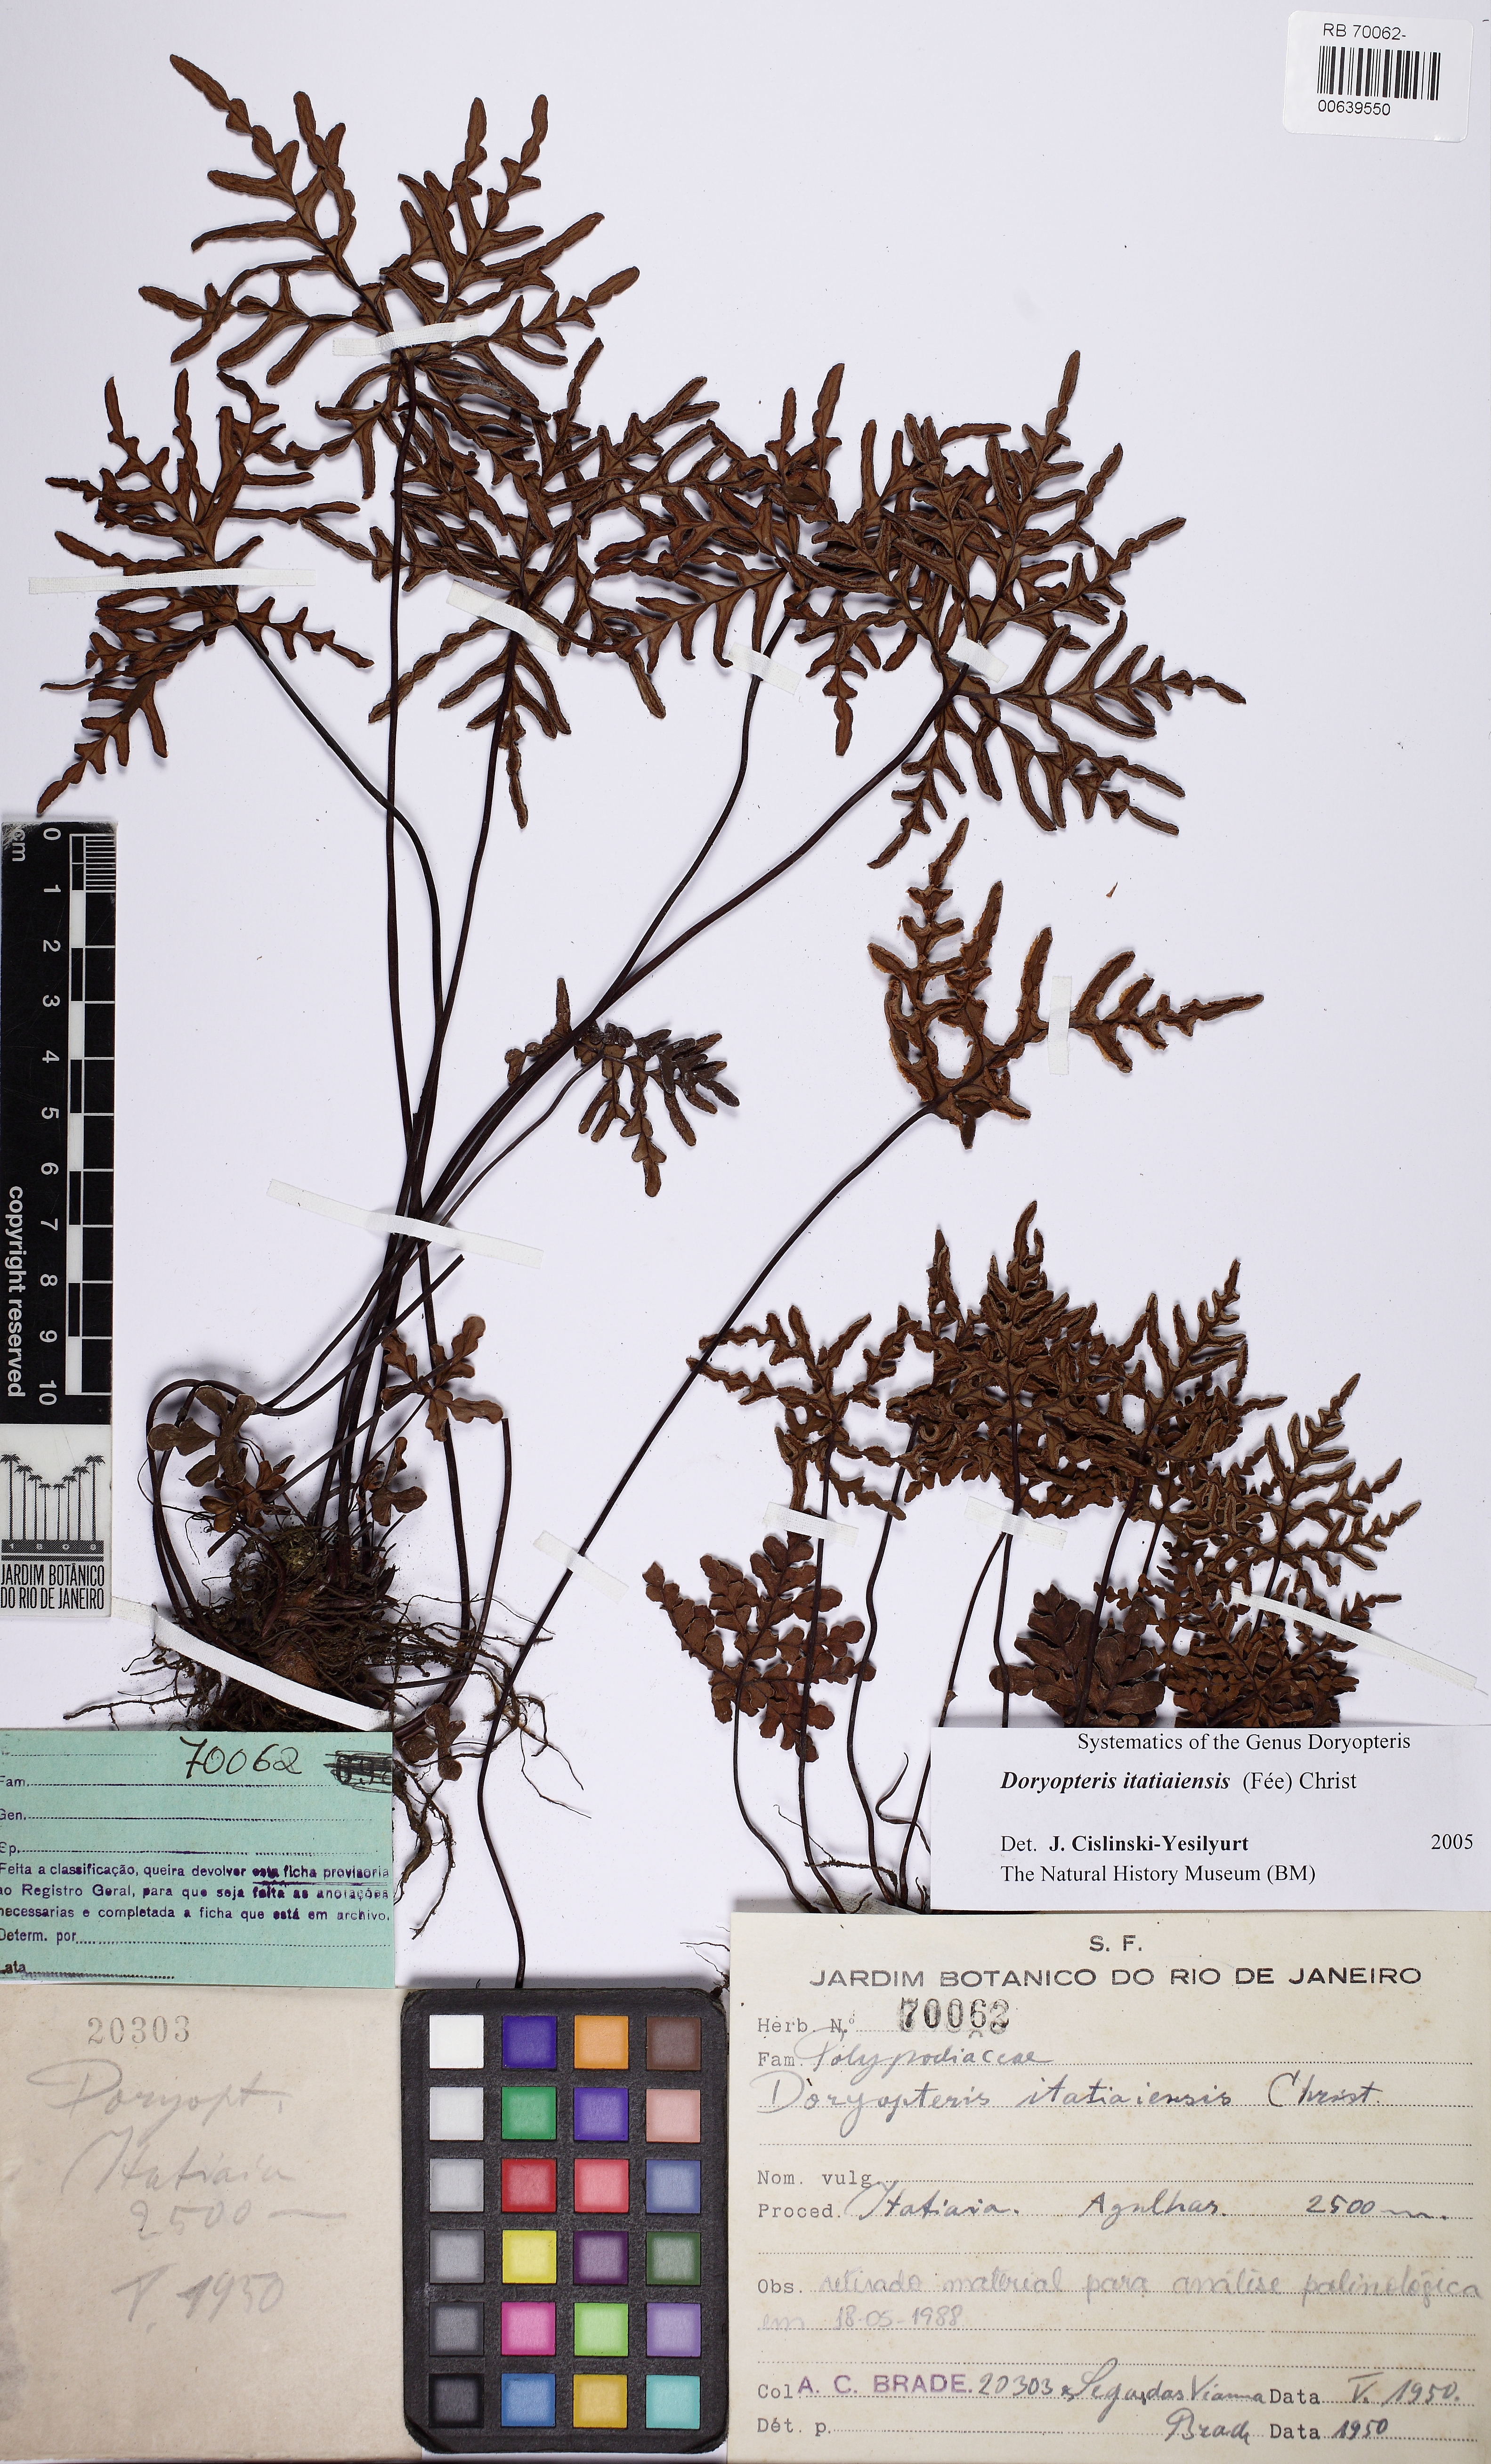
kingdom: Plantae
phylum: Tracheophyta
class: Polypodiopsida
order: Polypodiales
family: Pteridaceae
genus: Lytoneuron
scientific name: Lytoneuron itatiaiense
